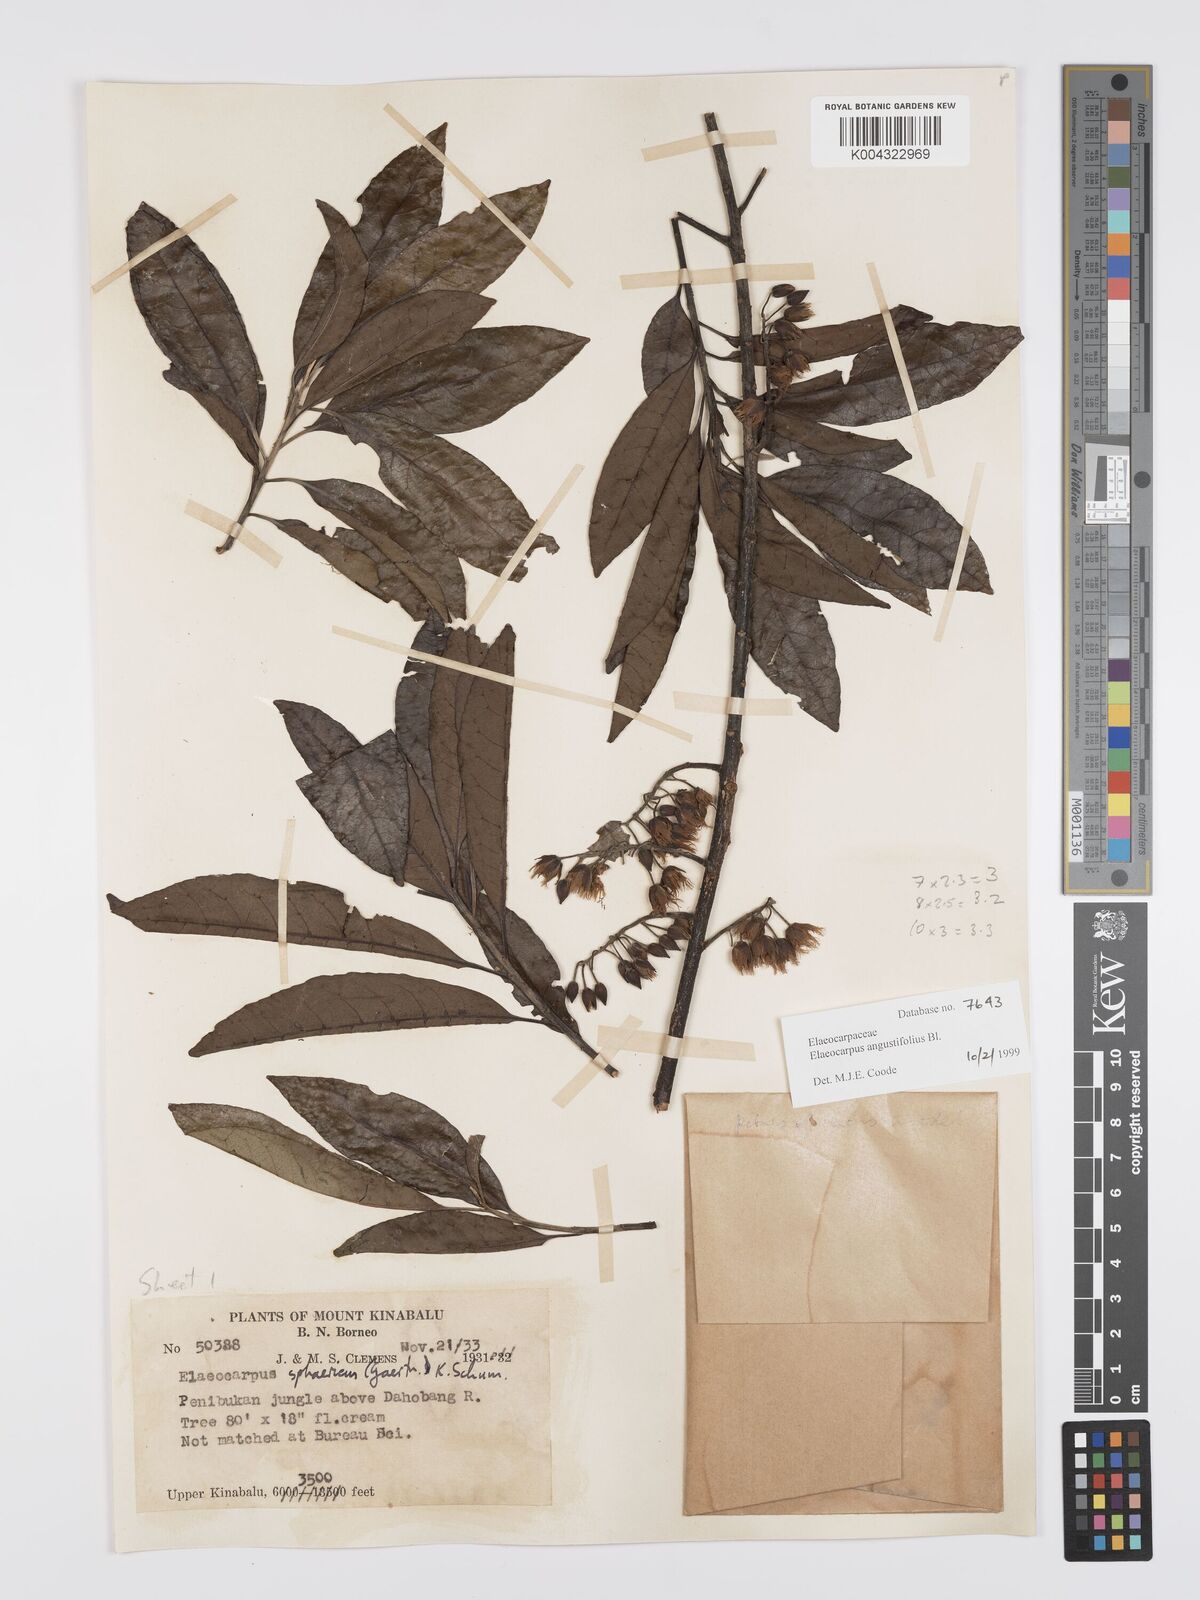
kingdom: Plantae
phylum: Tracheophyta
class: Magnoliopsida
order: Oxalidales
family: Elaeocarpaceae
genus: Elaeocarpus
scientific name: Elaeocarpus
